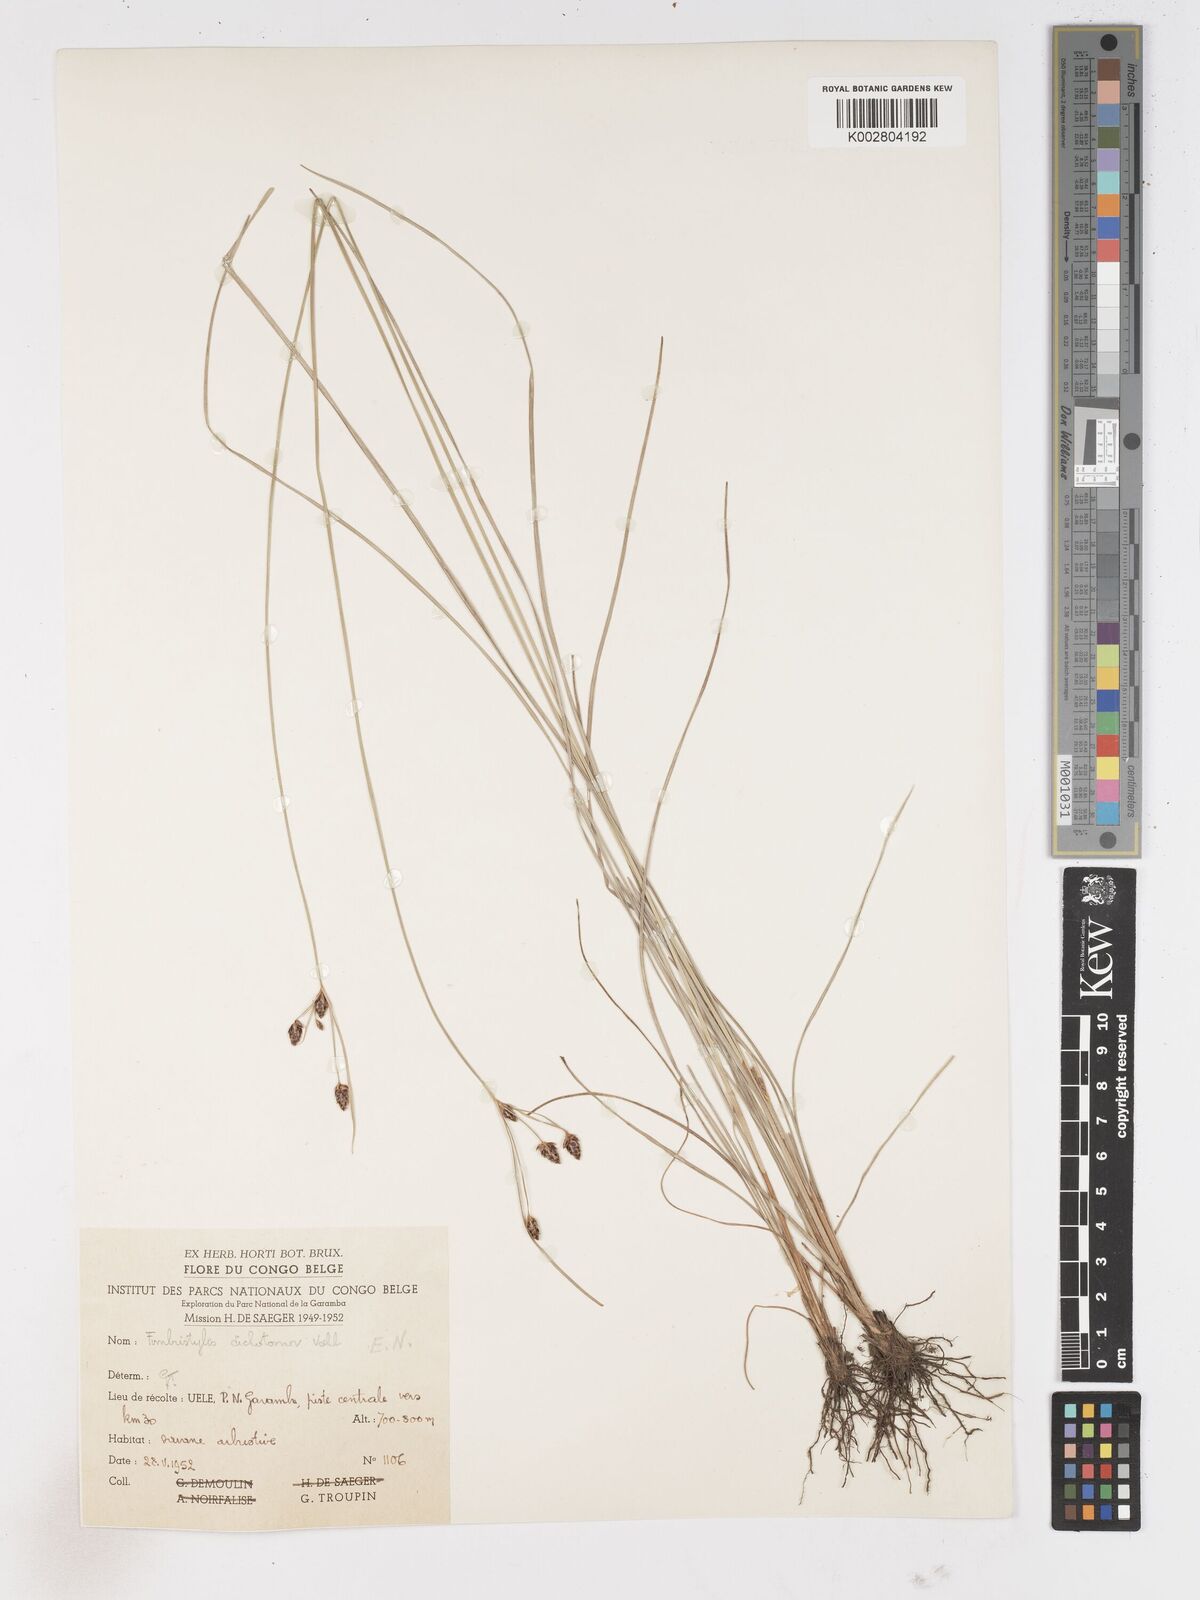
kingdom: Plantae
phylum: Tracheophyta
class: Liliopsida
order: Poales
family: Cyperaceae
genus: Fimbristylis
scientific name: Fimbristylis pilosa
